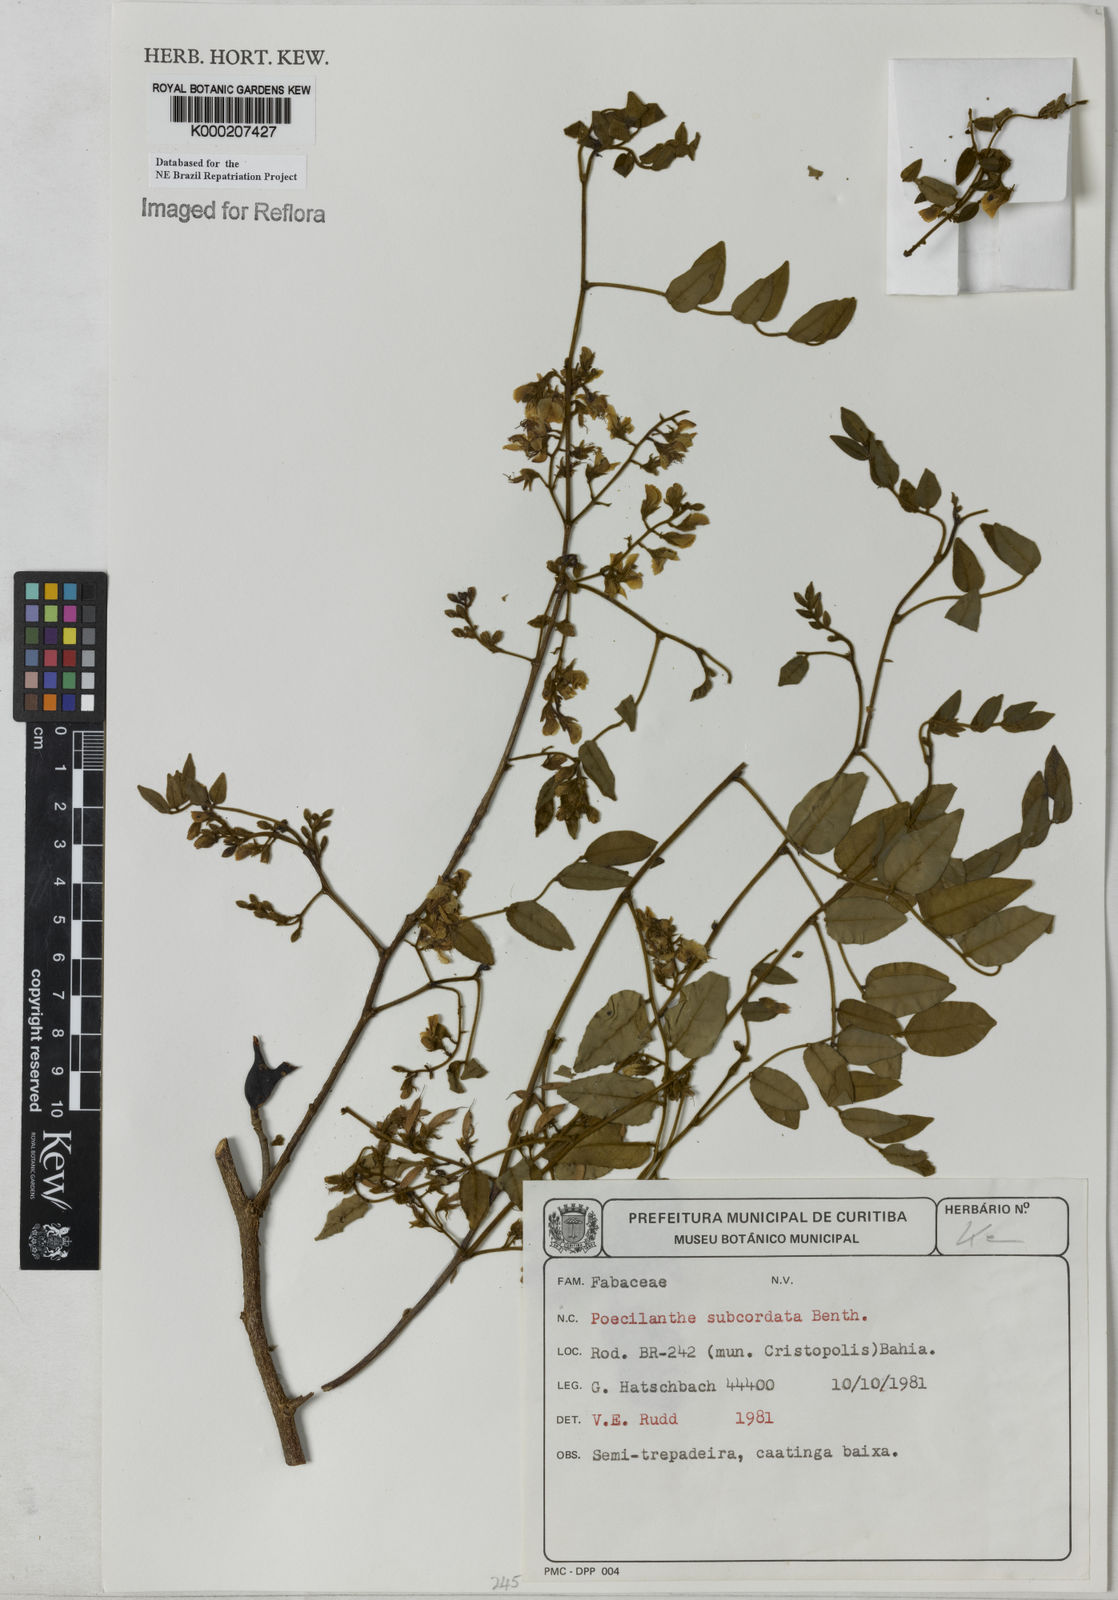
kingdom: Plantae
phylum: Tracheophyta
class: Magnoliopsida
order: Fabales
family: Fabaceae
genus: Poecilanthe
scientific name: Poecilanthe subcordata
